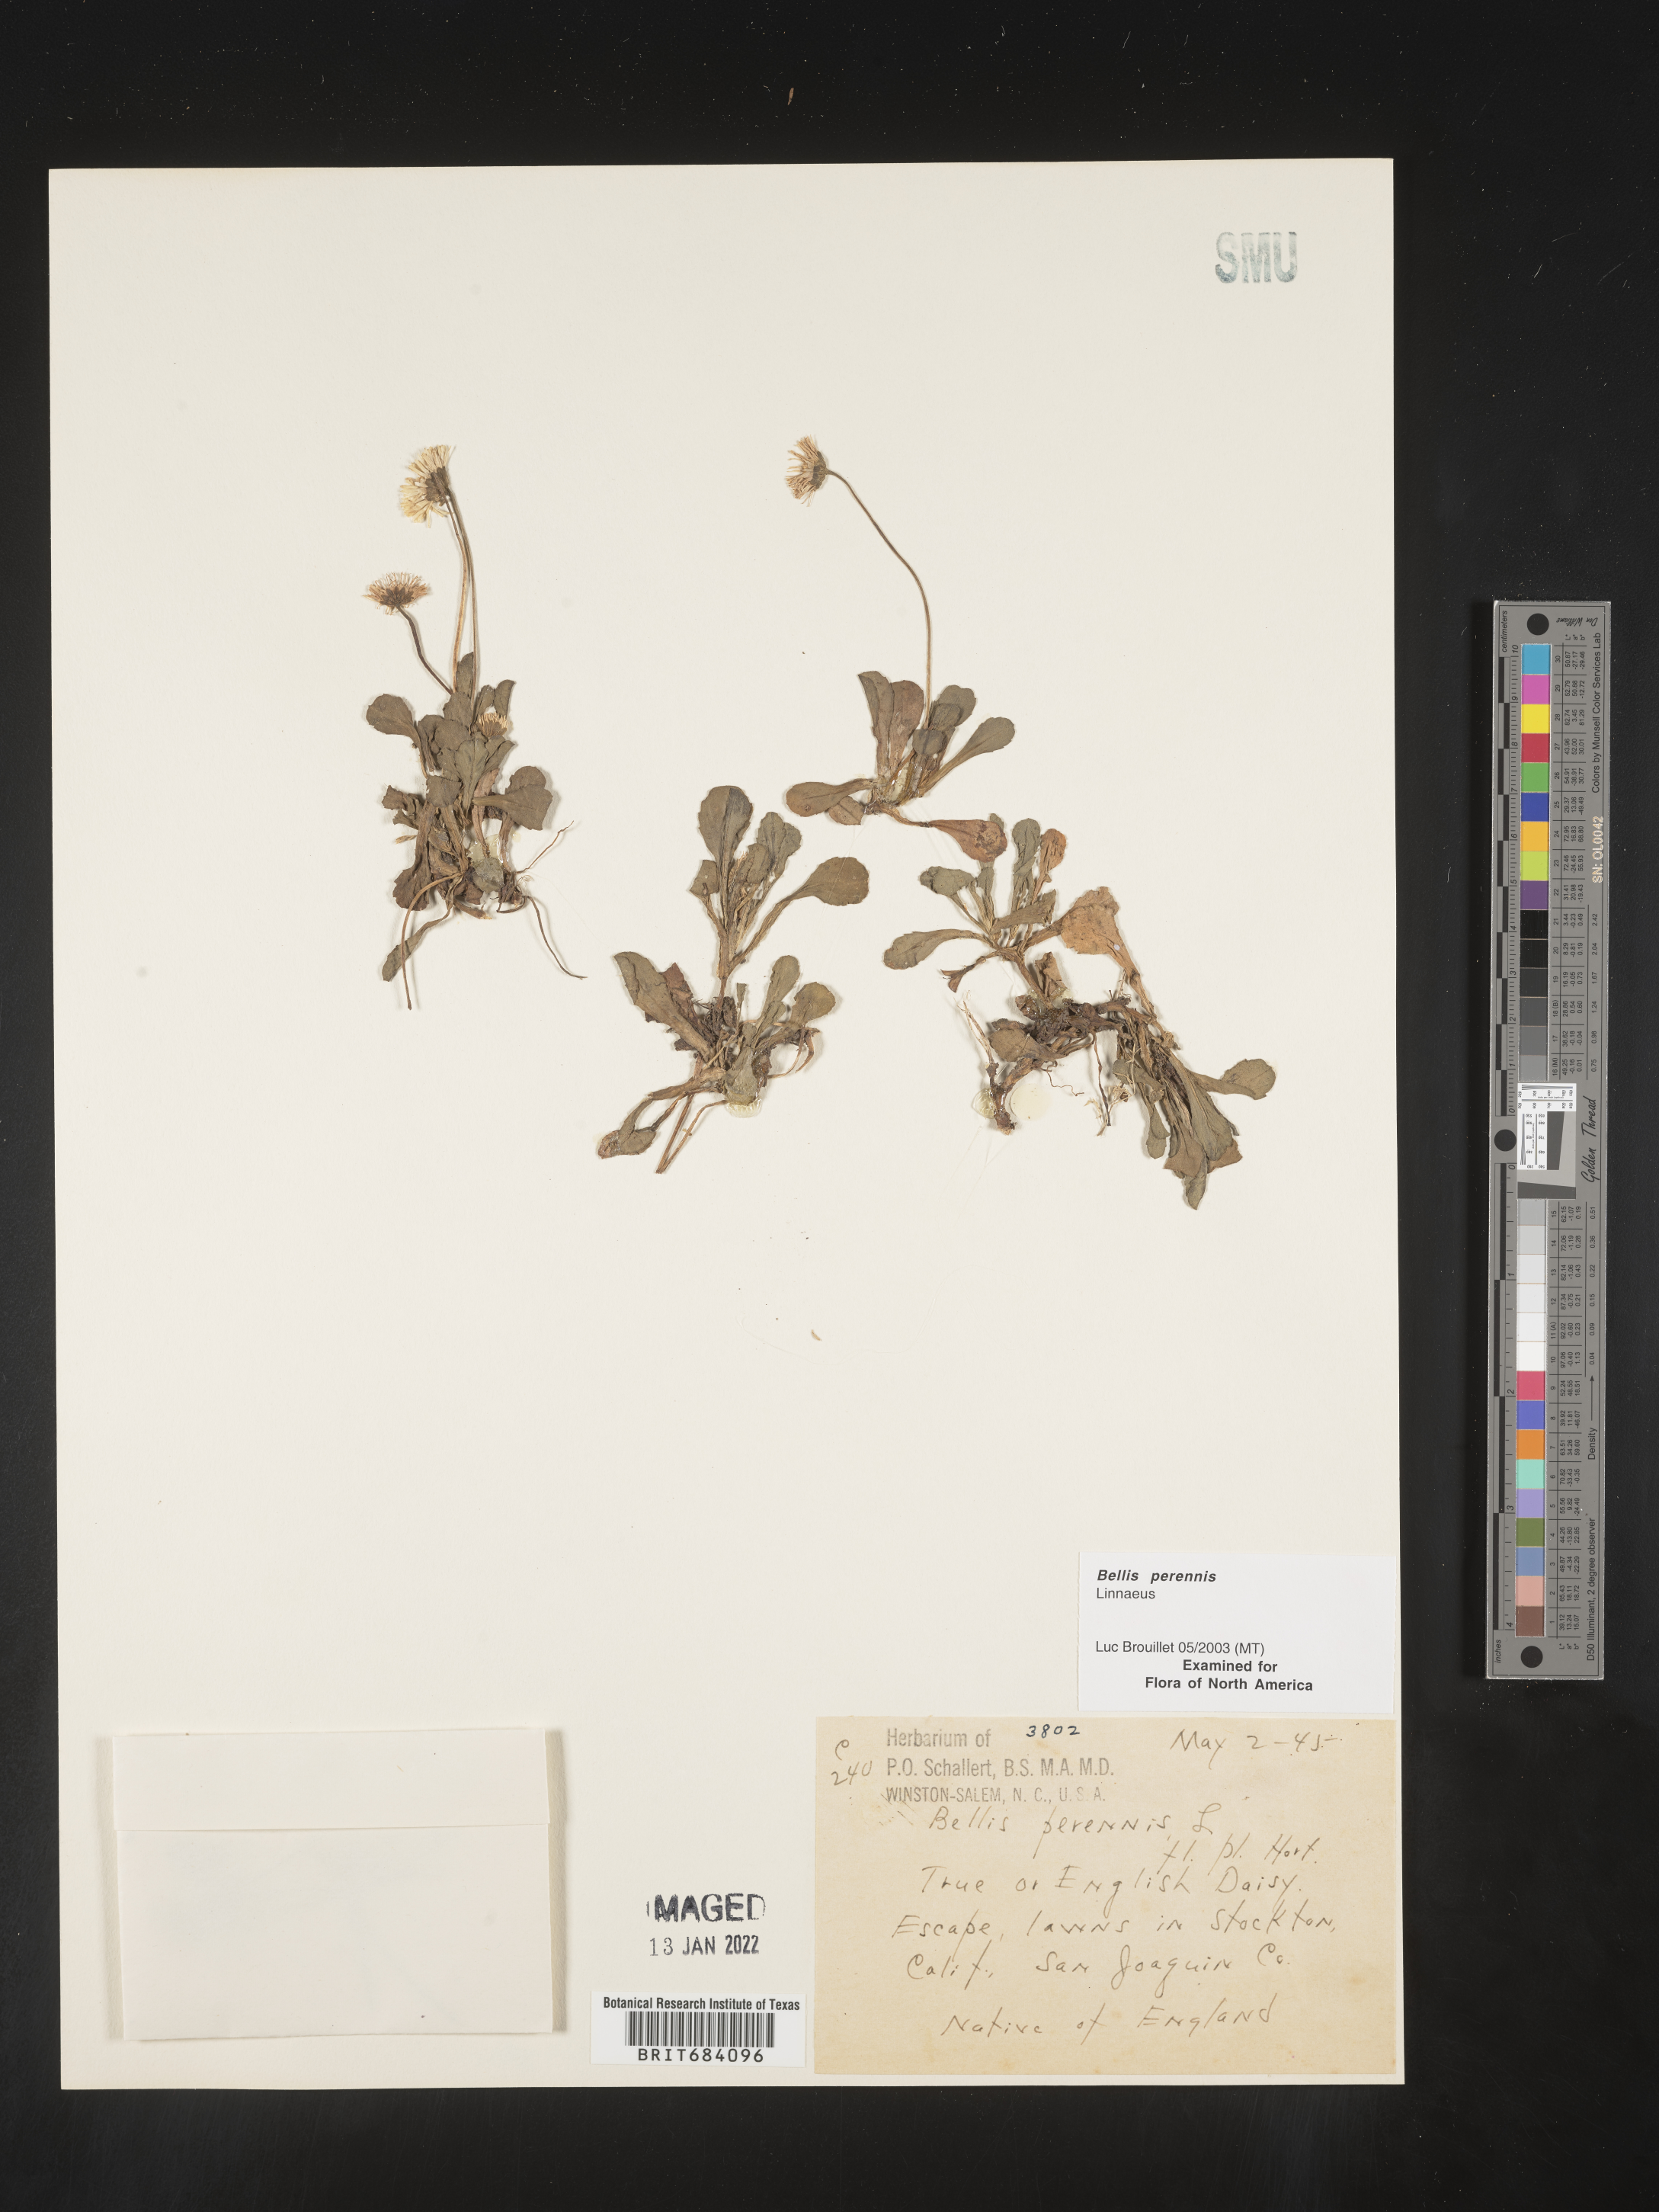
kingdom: Plantae
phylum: Tracheophyta
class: Magnoliopsida
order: Asterales
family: Asteraceae
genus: Bellis
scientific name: Bellis
